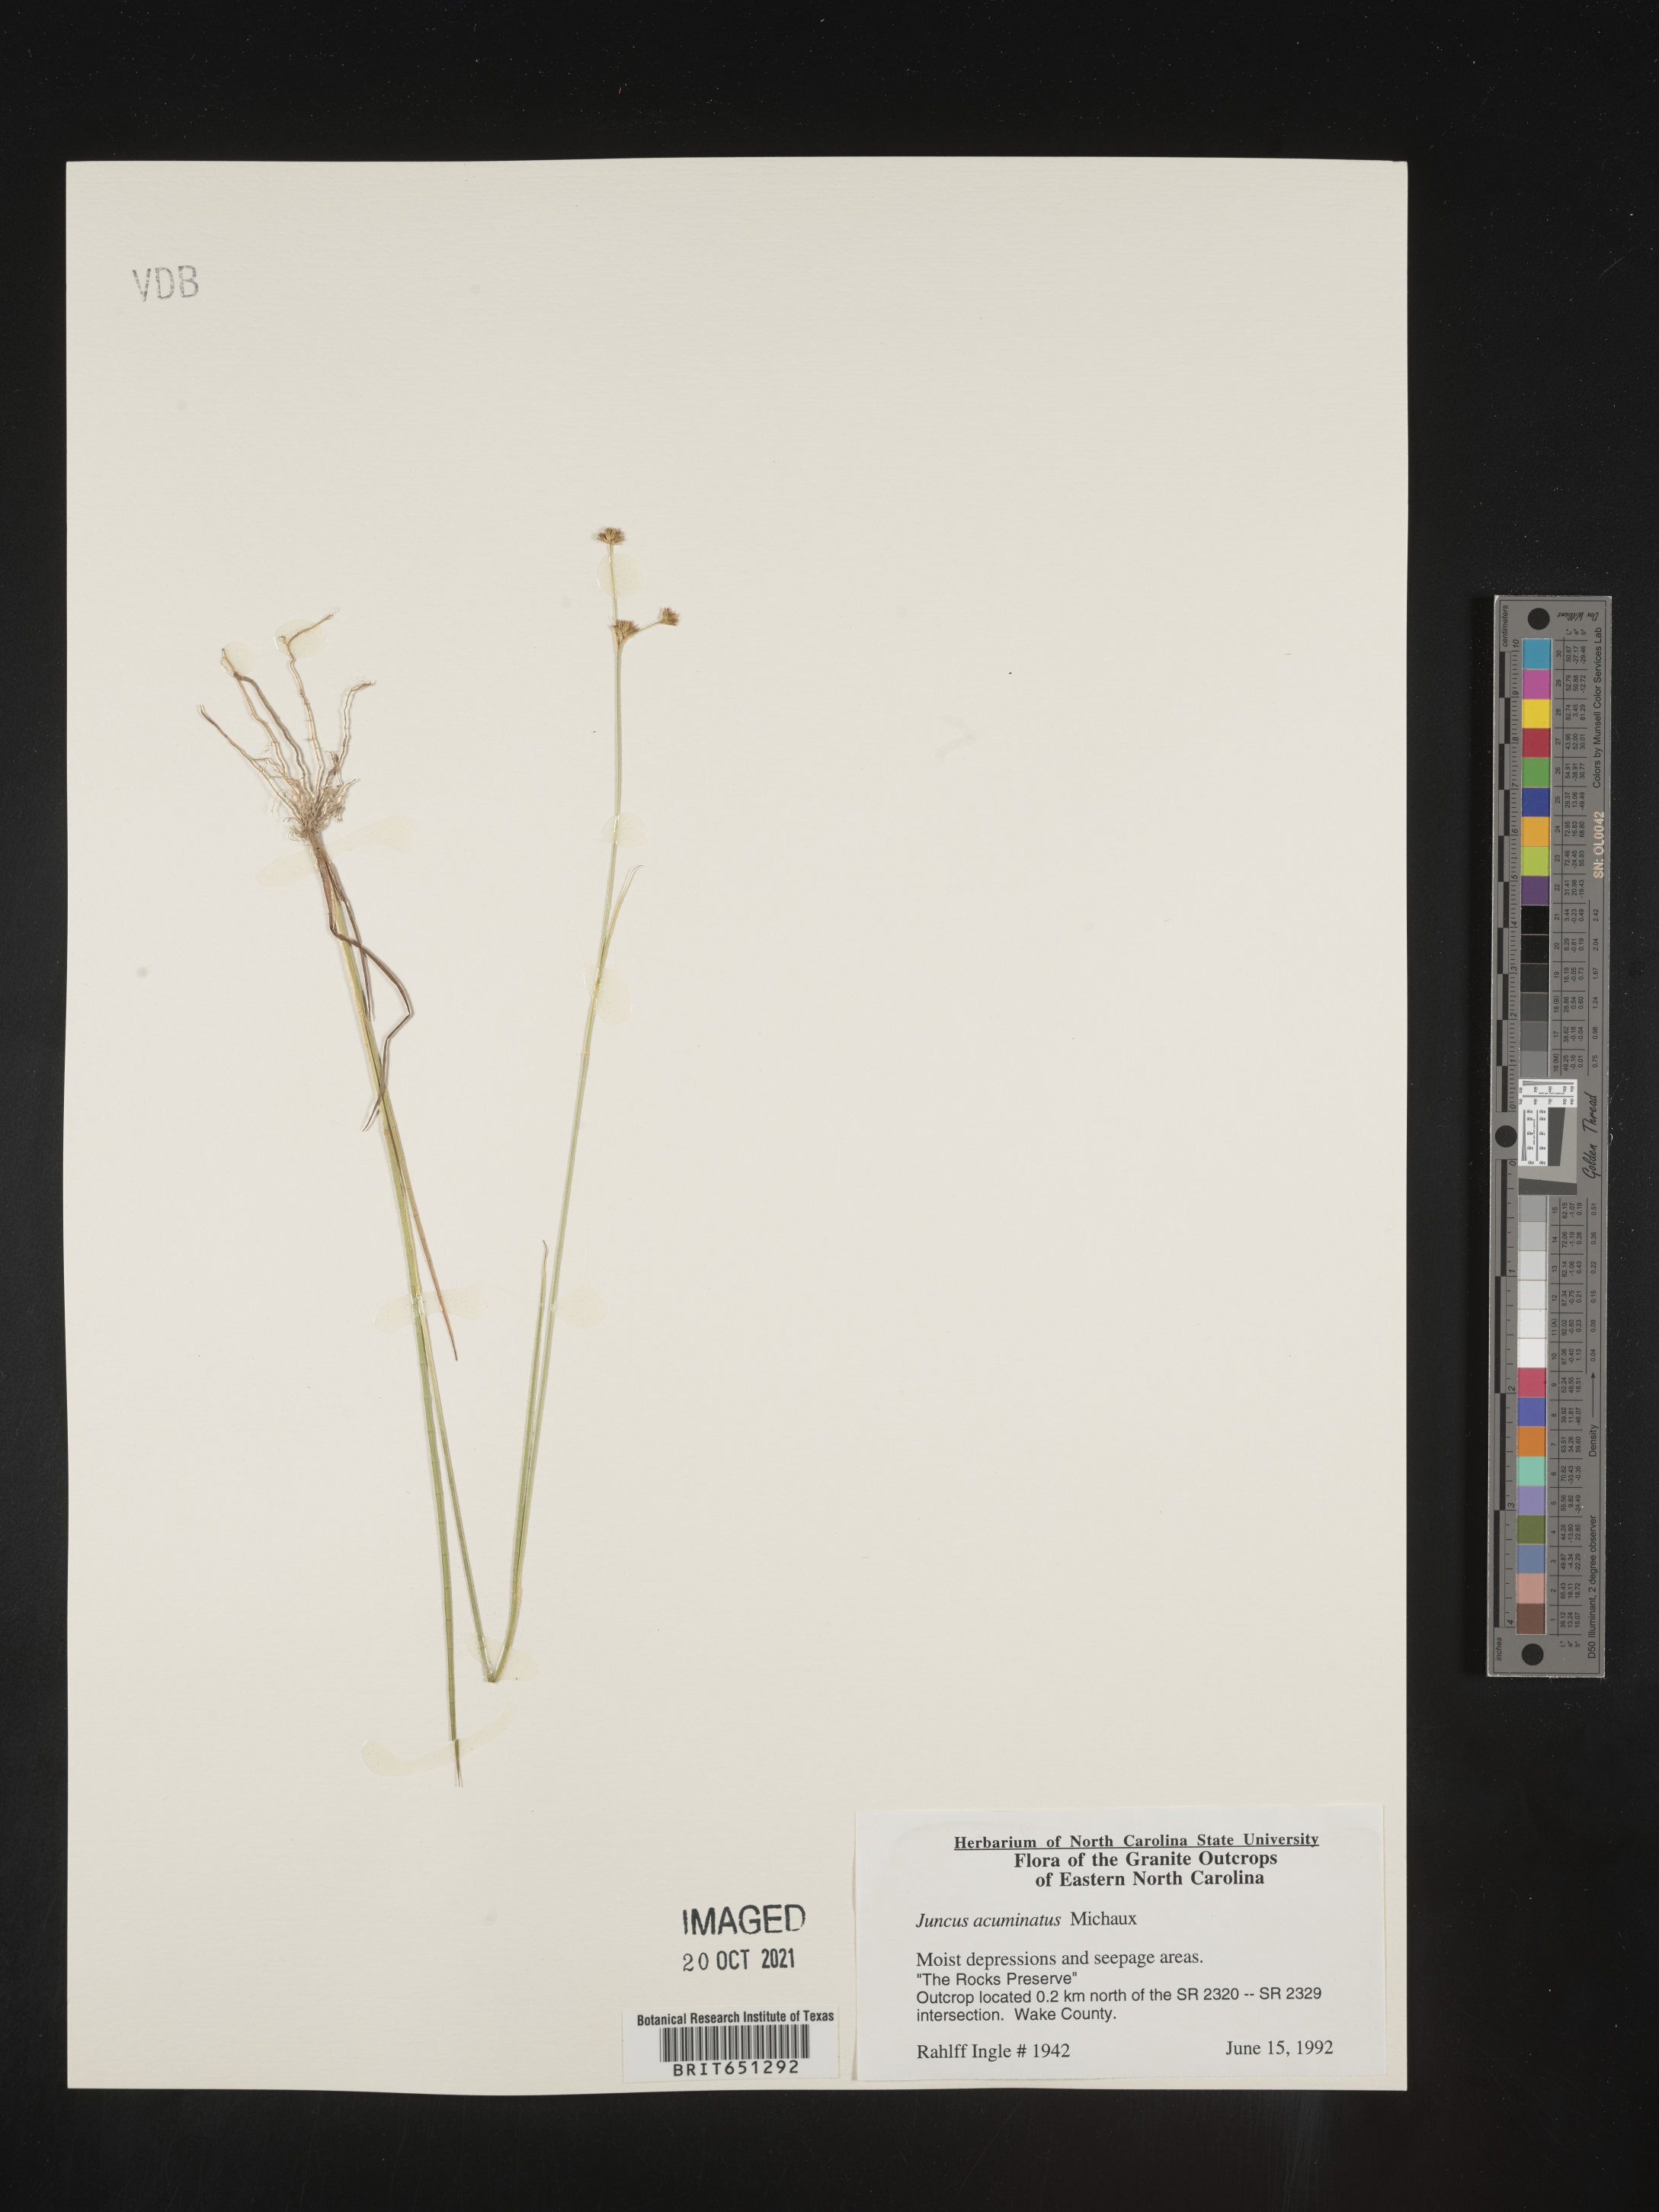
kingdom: Plantae
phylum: Tracheophyta
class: Liliopsida
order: Poales
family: Juncaceae
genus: Juncus
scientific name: Juncus acuminatus
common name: Knotty-leaved rush
